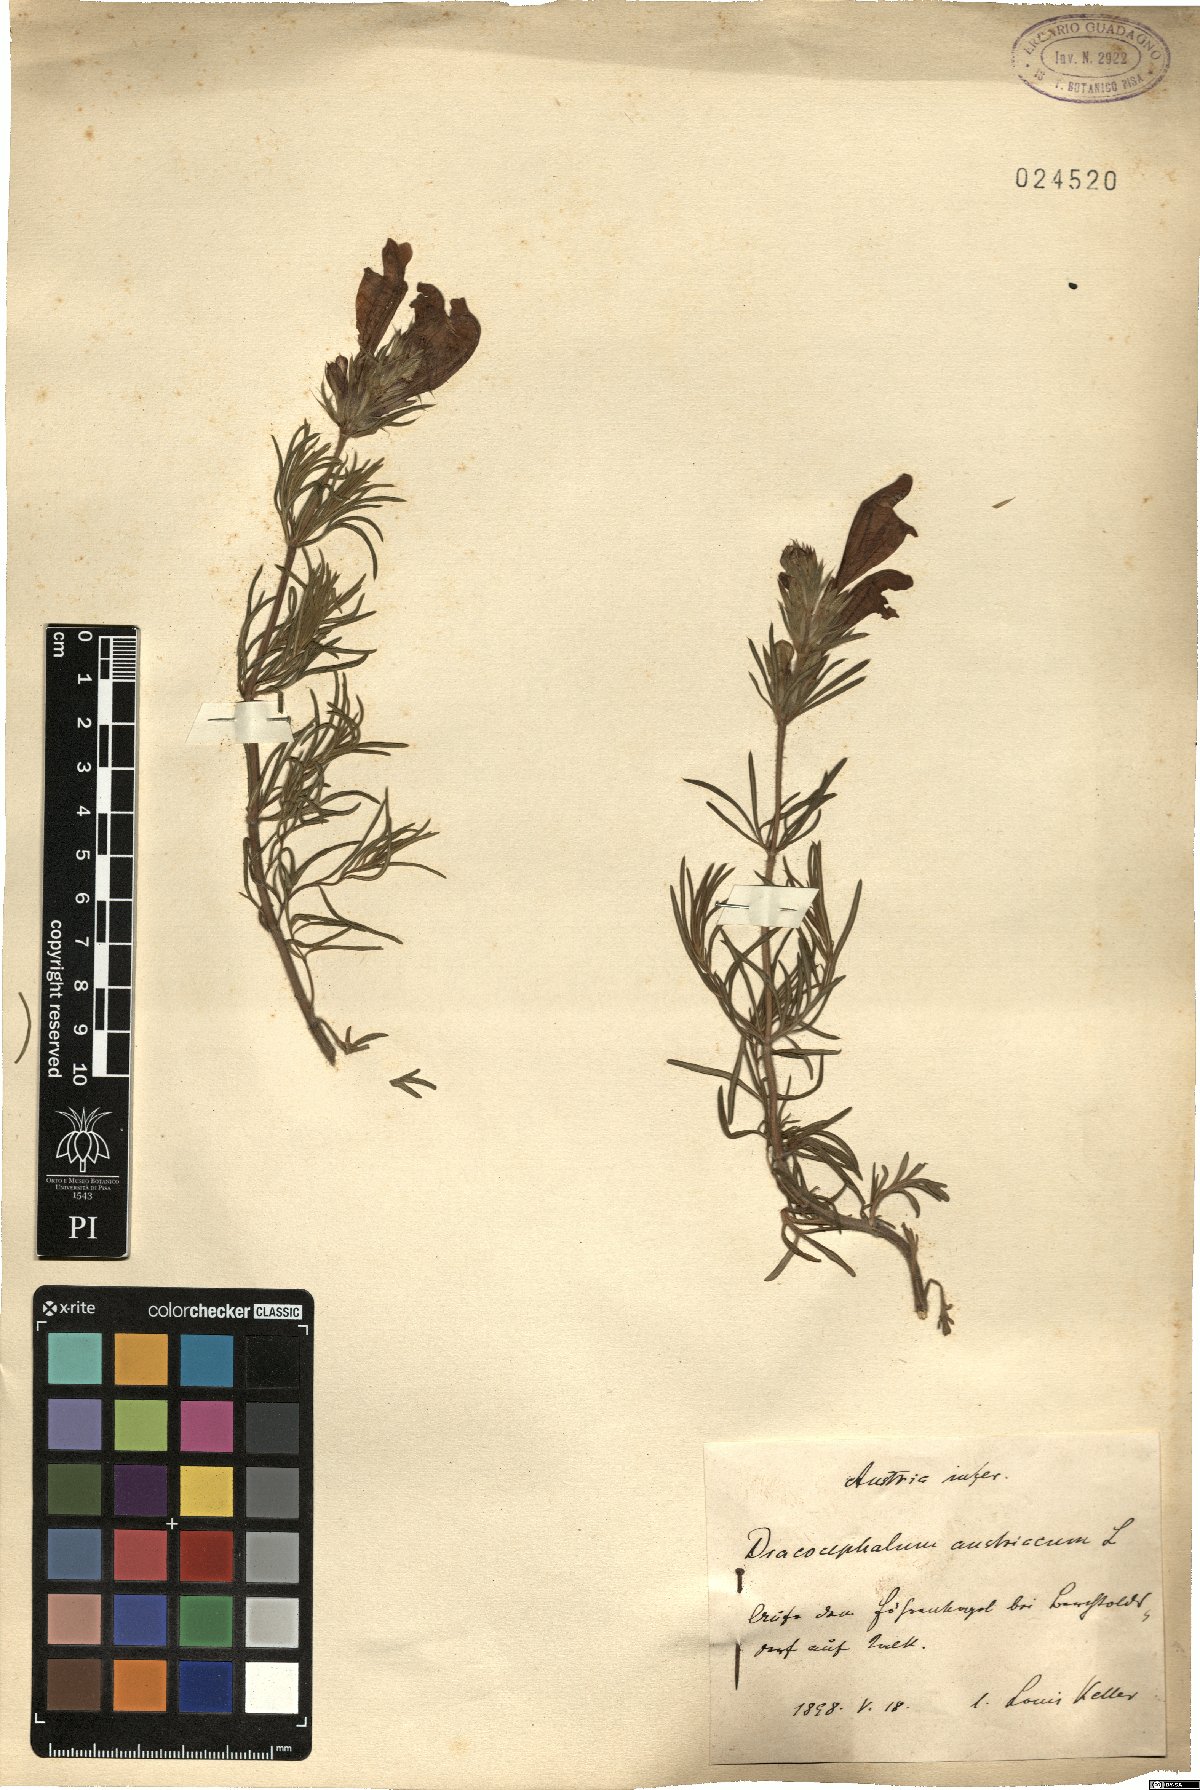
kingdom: Plantae
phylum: Tracheophyta
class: Magnoliopsida
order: Lamiales
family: Lamiaceae
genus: Dracocephalum
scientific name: Dracocephalum austriacum
